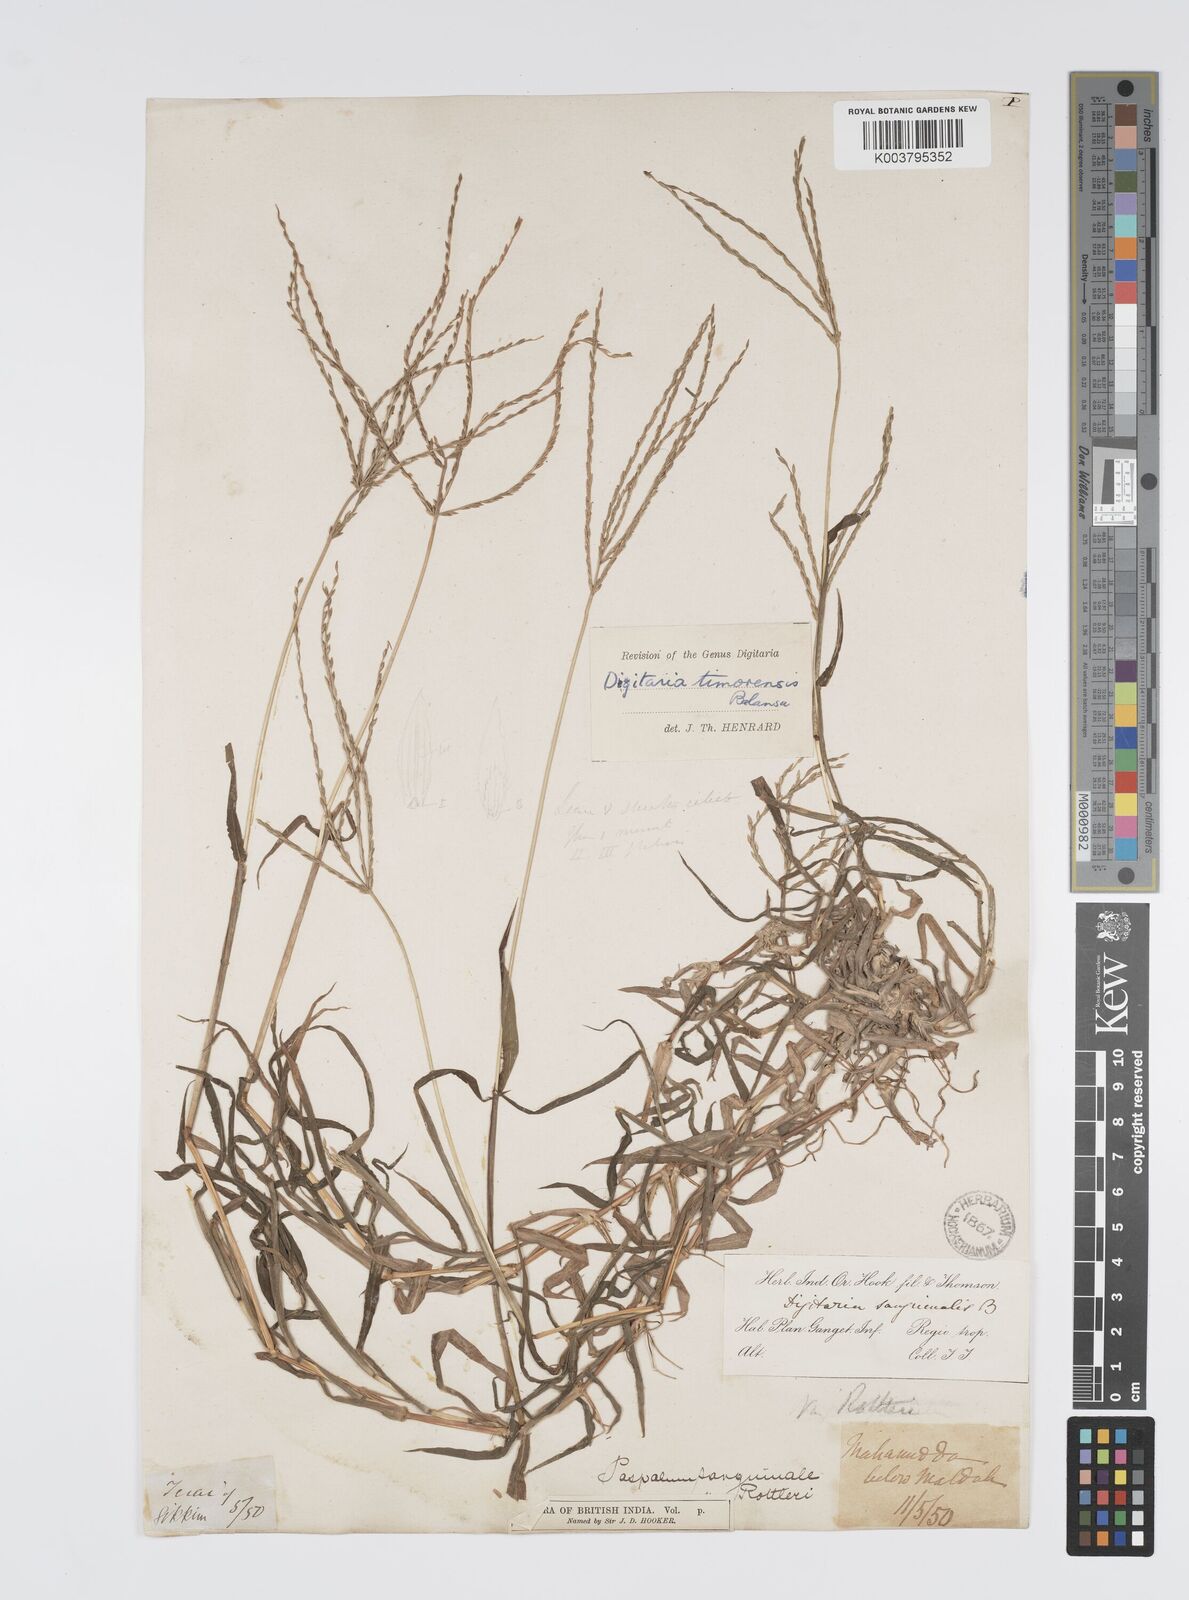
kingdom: Plantae
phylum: Tracheophyta
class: Liliopsida
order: Poales
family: Poaceae
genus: Digitaria
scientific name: Digitaria ciliaris
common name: Tropical finger-grass
